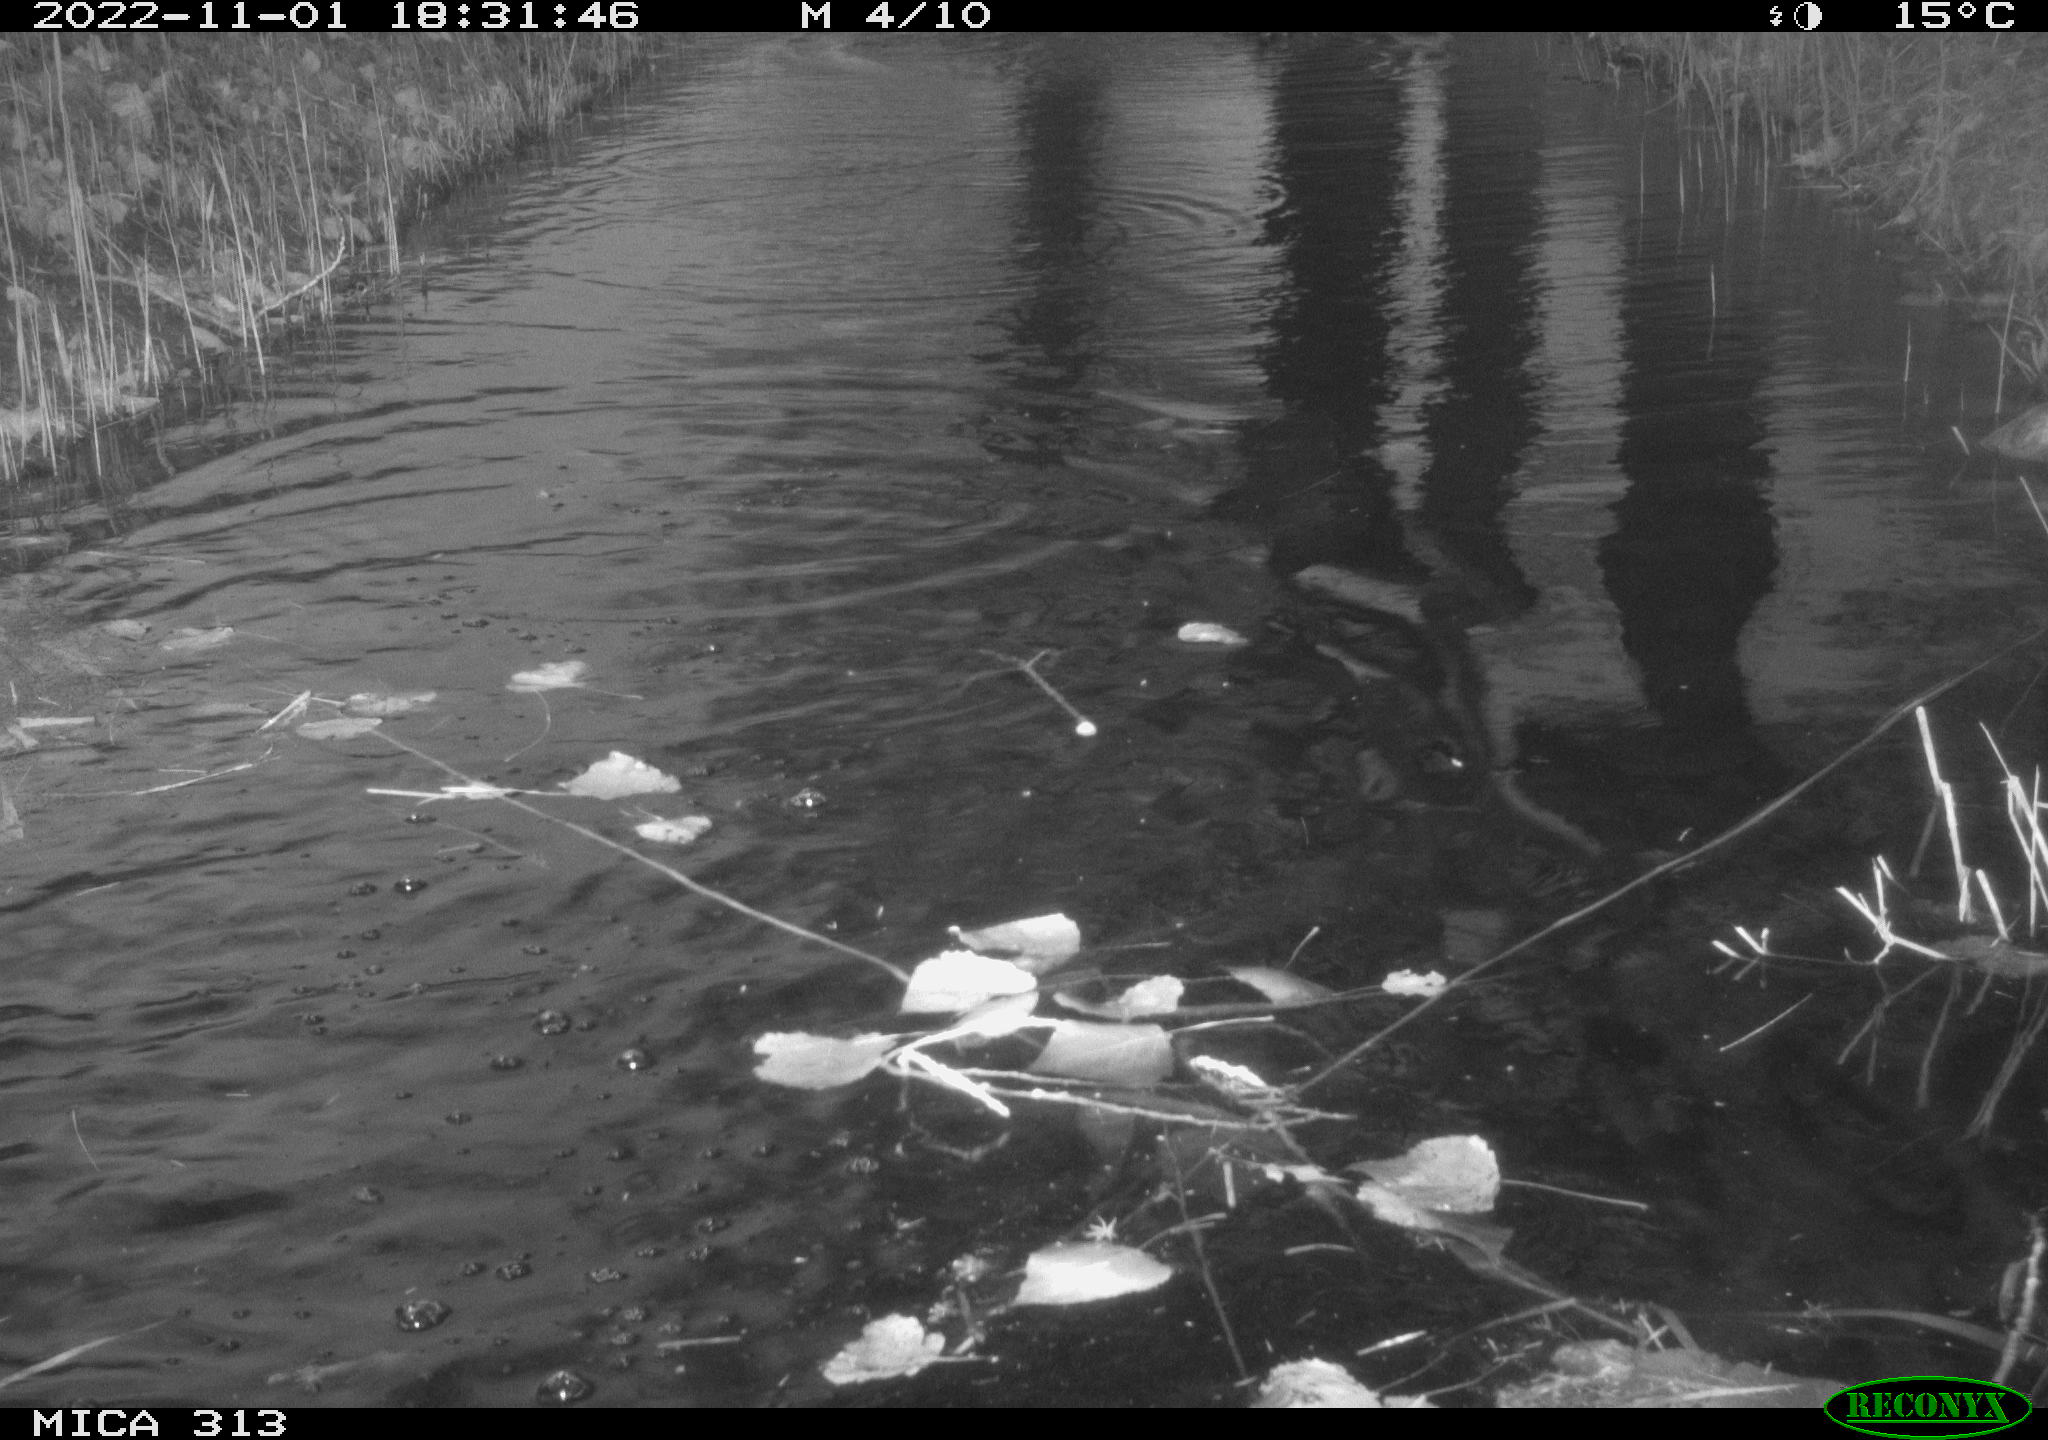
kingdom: Animalia
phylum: Chordata
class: Aves
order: Gruiformes
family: Rallidae
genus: Gallinula
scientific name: Gallinula chloropus
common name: Common moorhen
